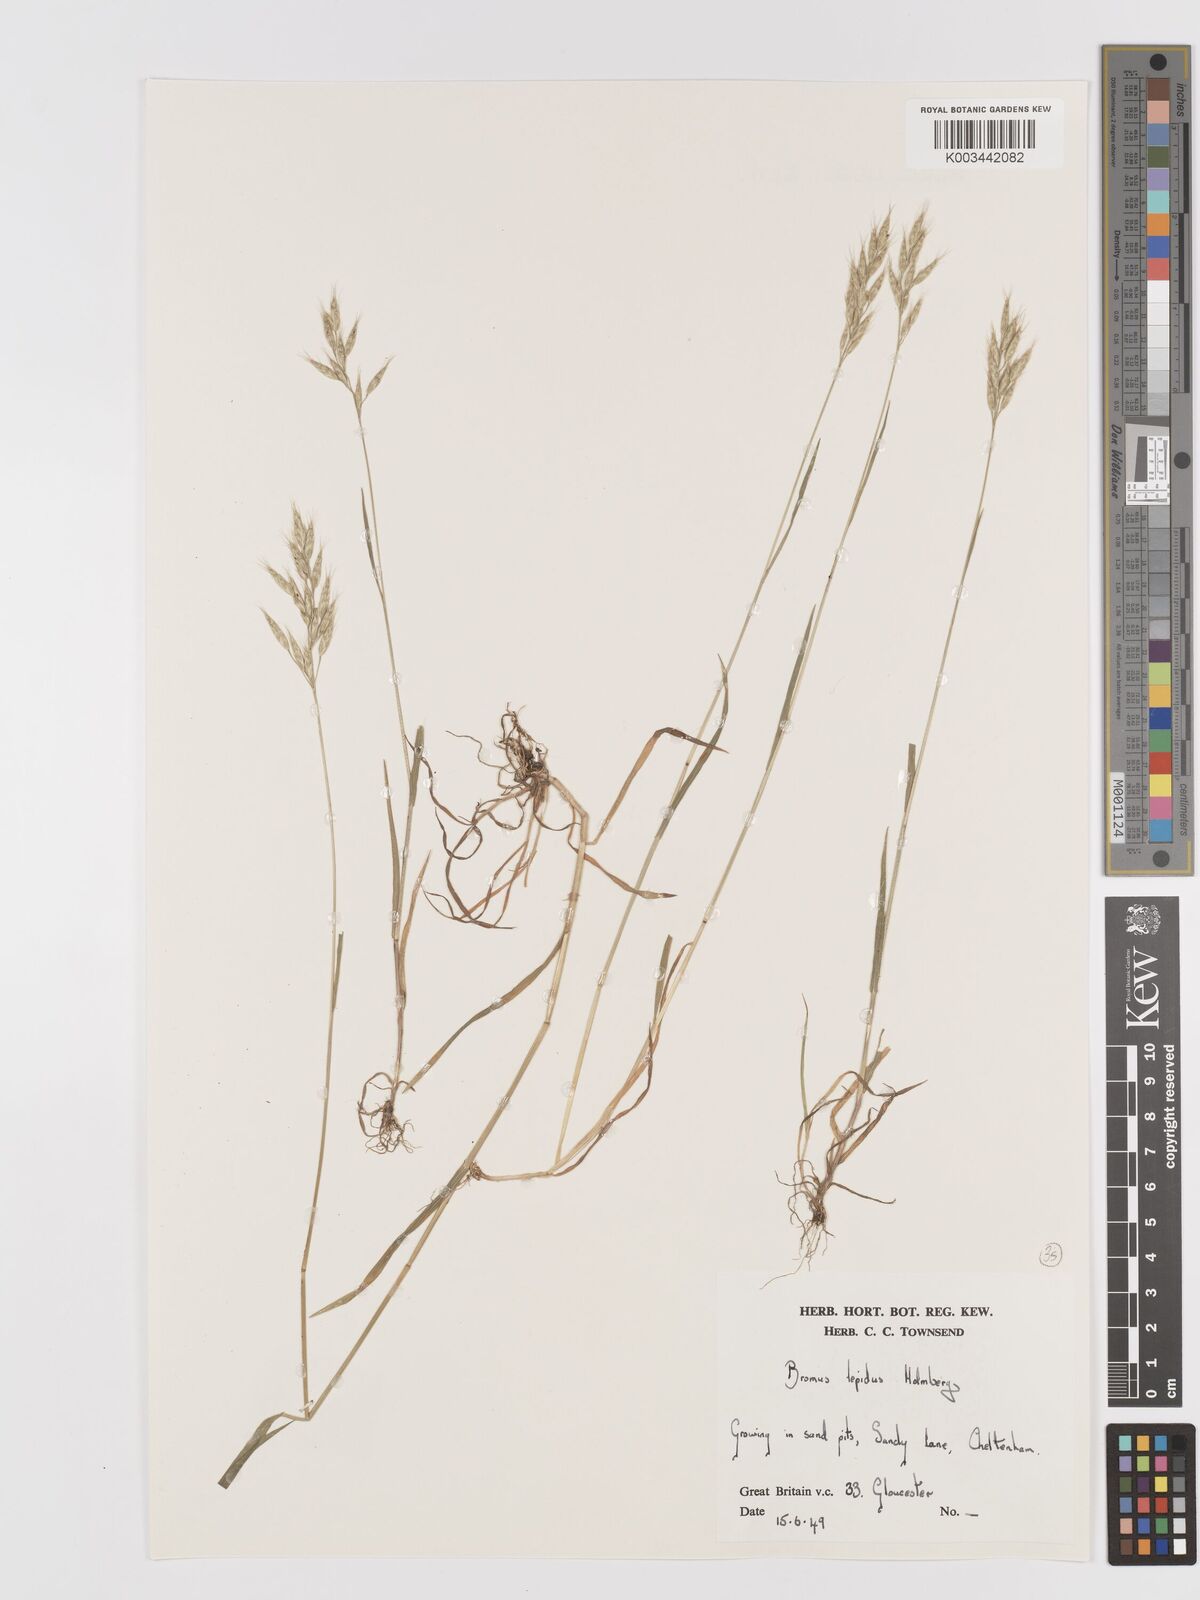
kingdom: Plantae
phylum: Tracheophyta
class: Liliopsida
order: Poales
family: Poaceae
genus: Bromus
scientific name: Bromus lepidus
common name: Slender soft-brome
